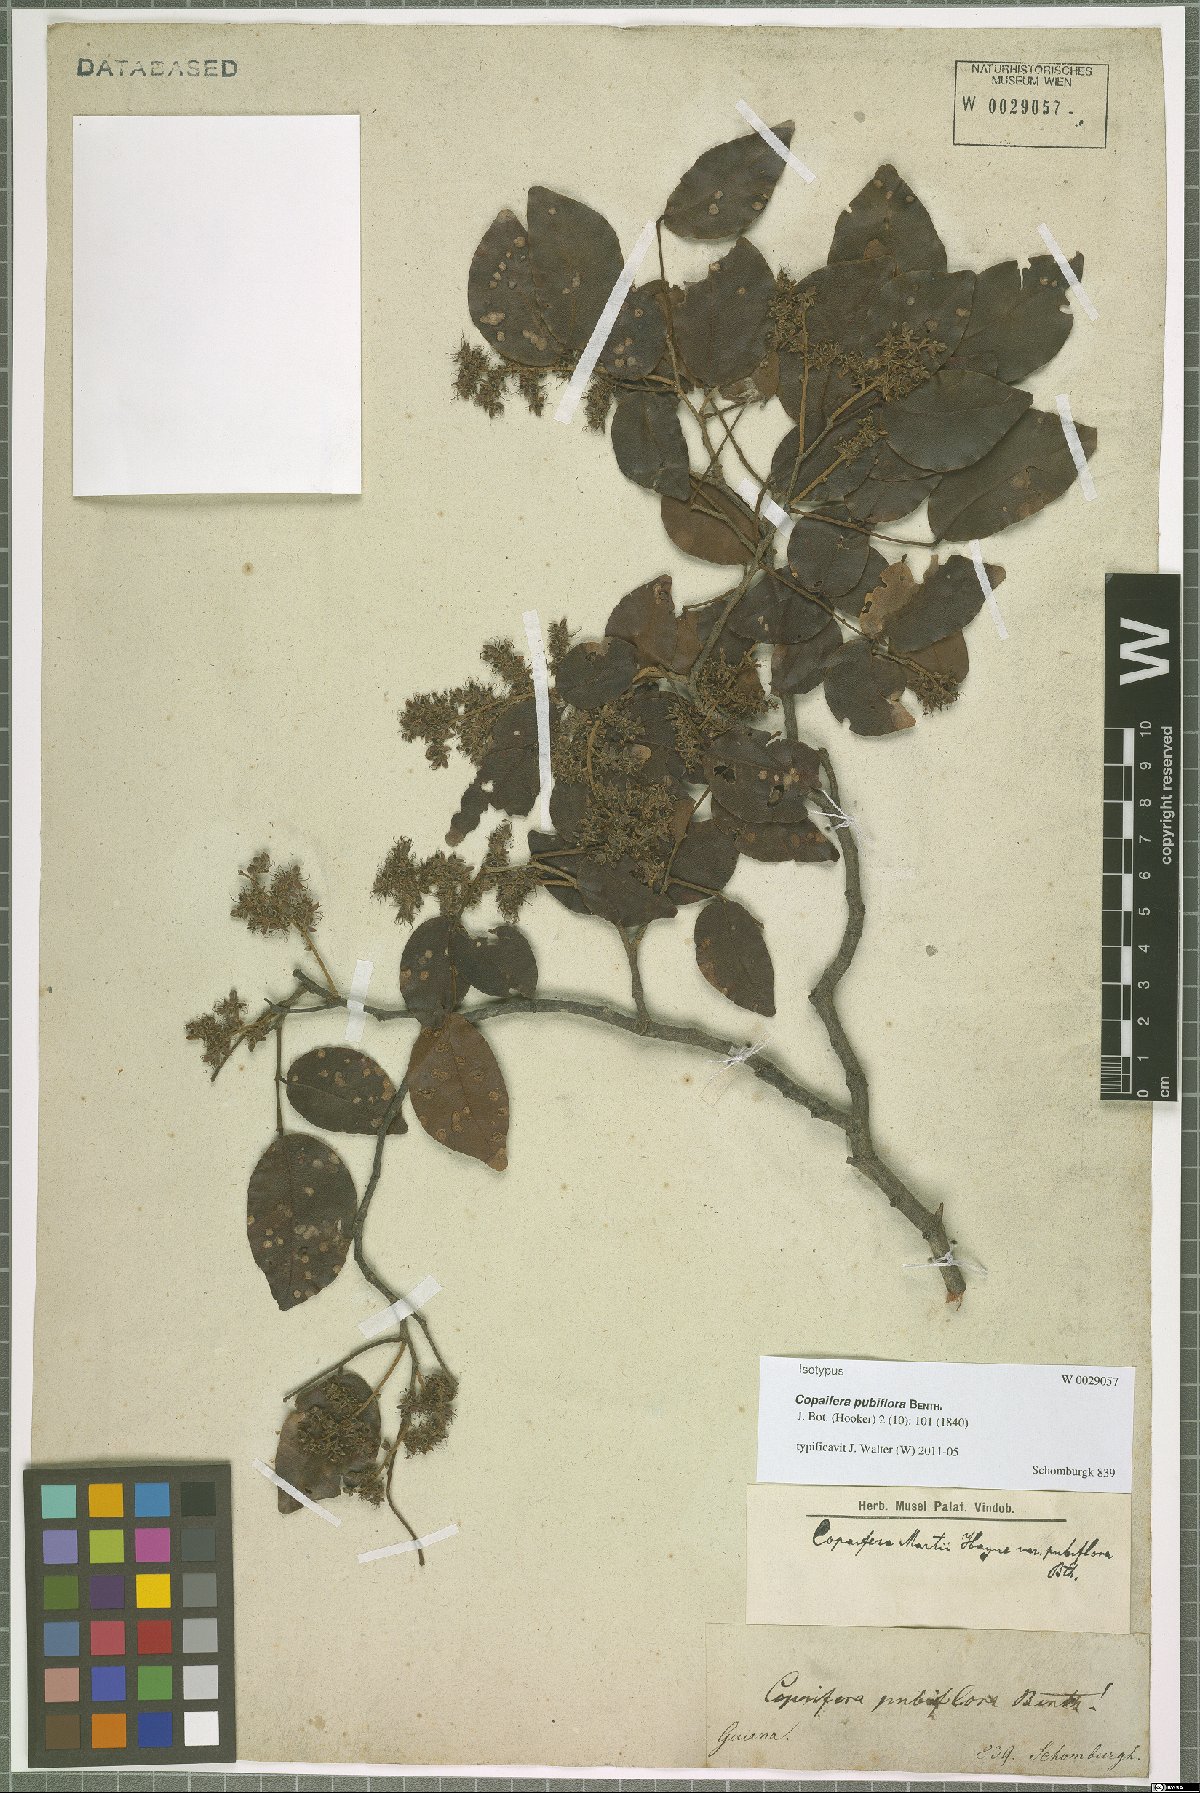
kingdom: Plantae
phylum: Tracheophyta
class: Magnoliopsida
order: Fabales
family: Fabaceae
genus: Copaifera
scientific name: Copaifera pubiflora
